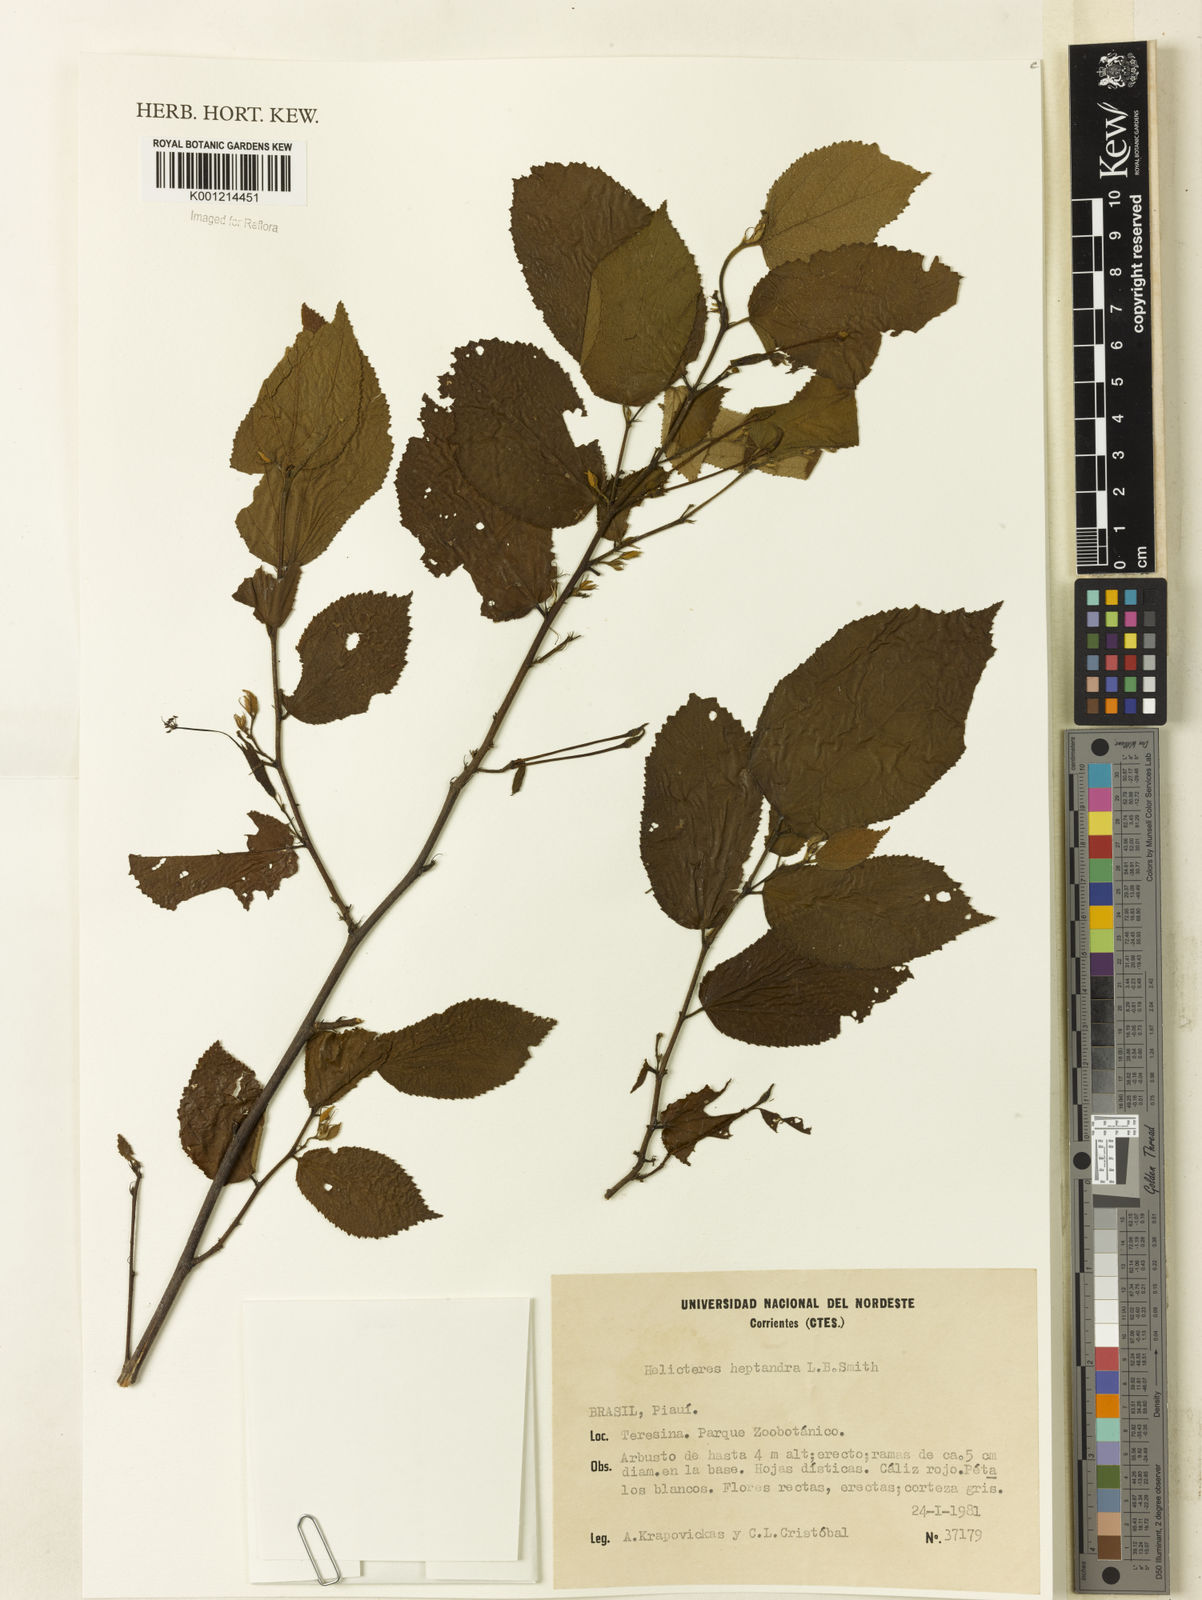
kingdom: Plantae
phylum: Tracheophyta
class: Magnoliopsida
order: Malvales
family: Malvaceae
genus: Helicteres
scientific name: Helicteres heptandra
